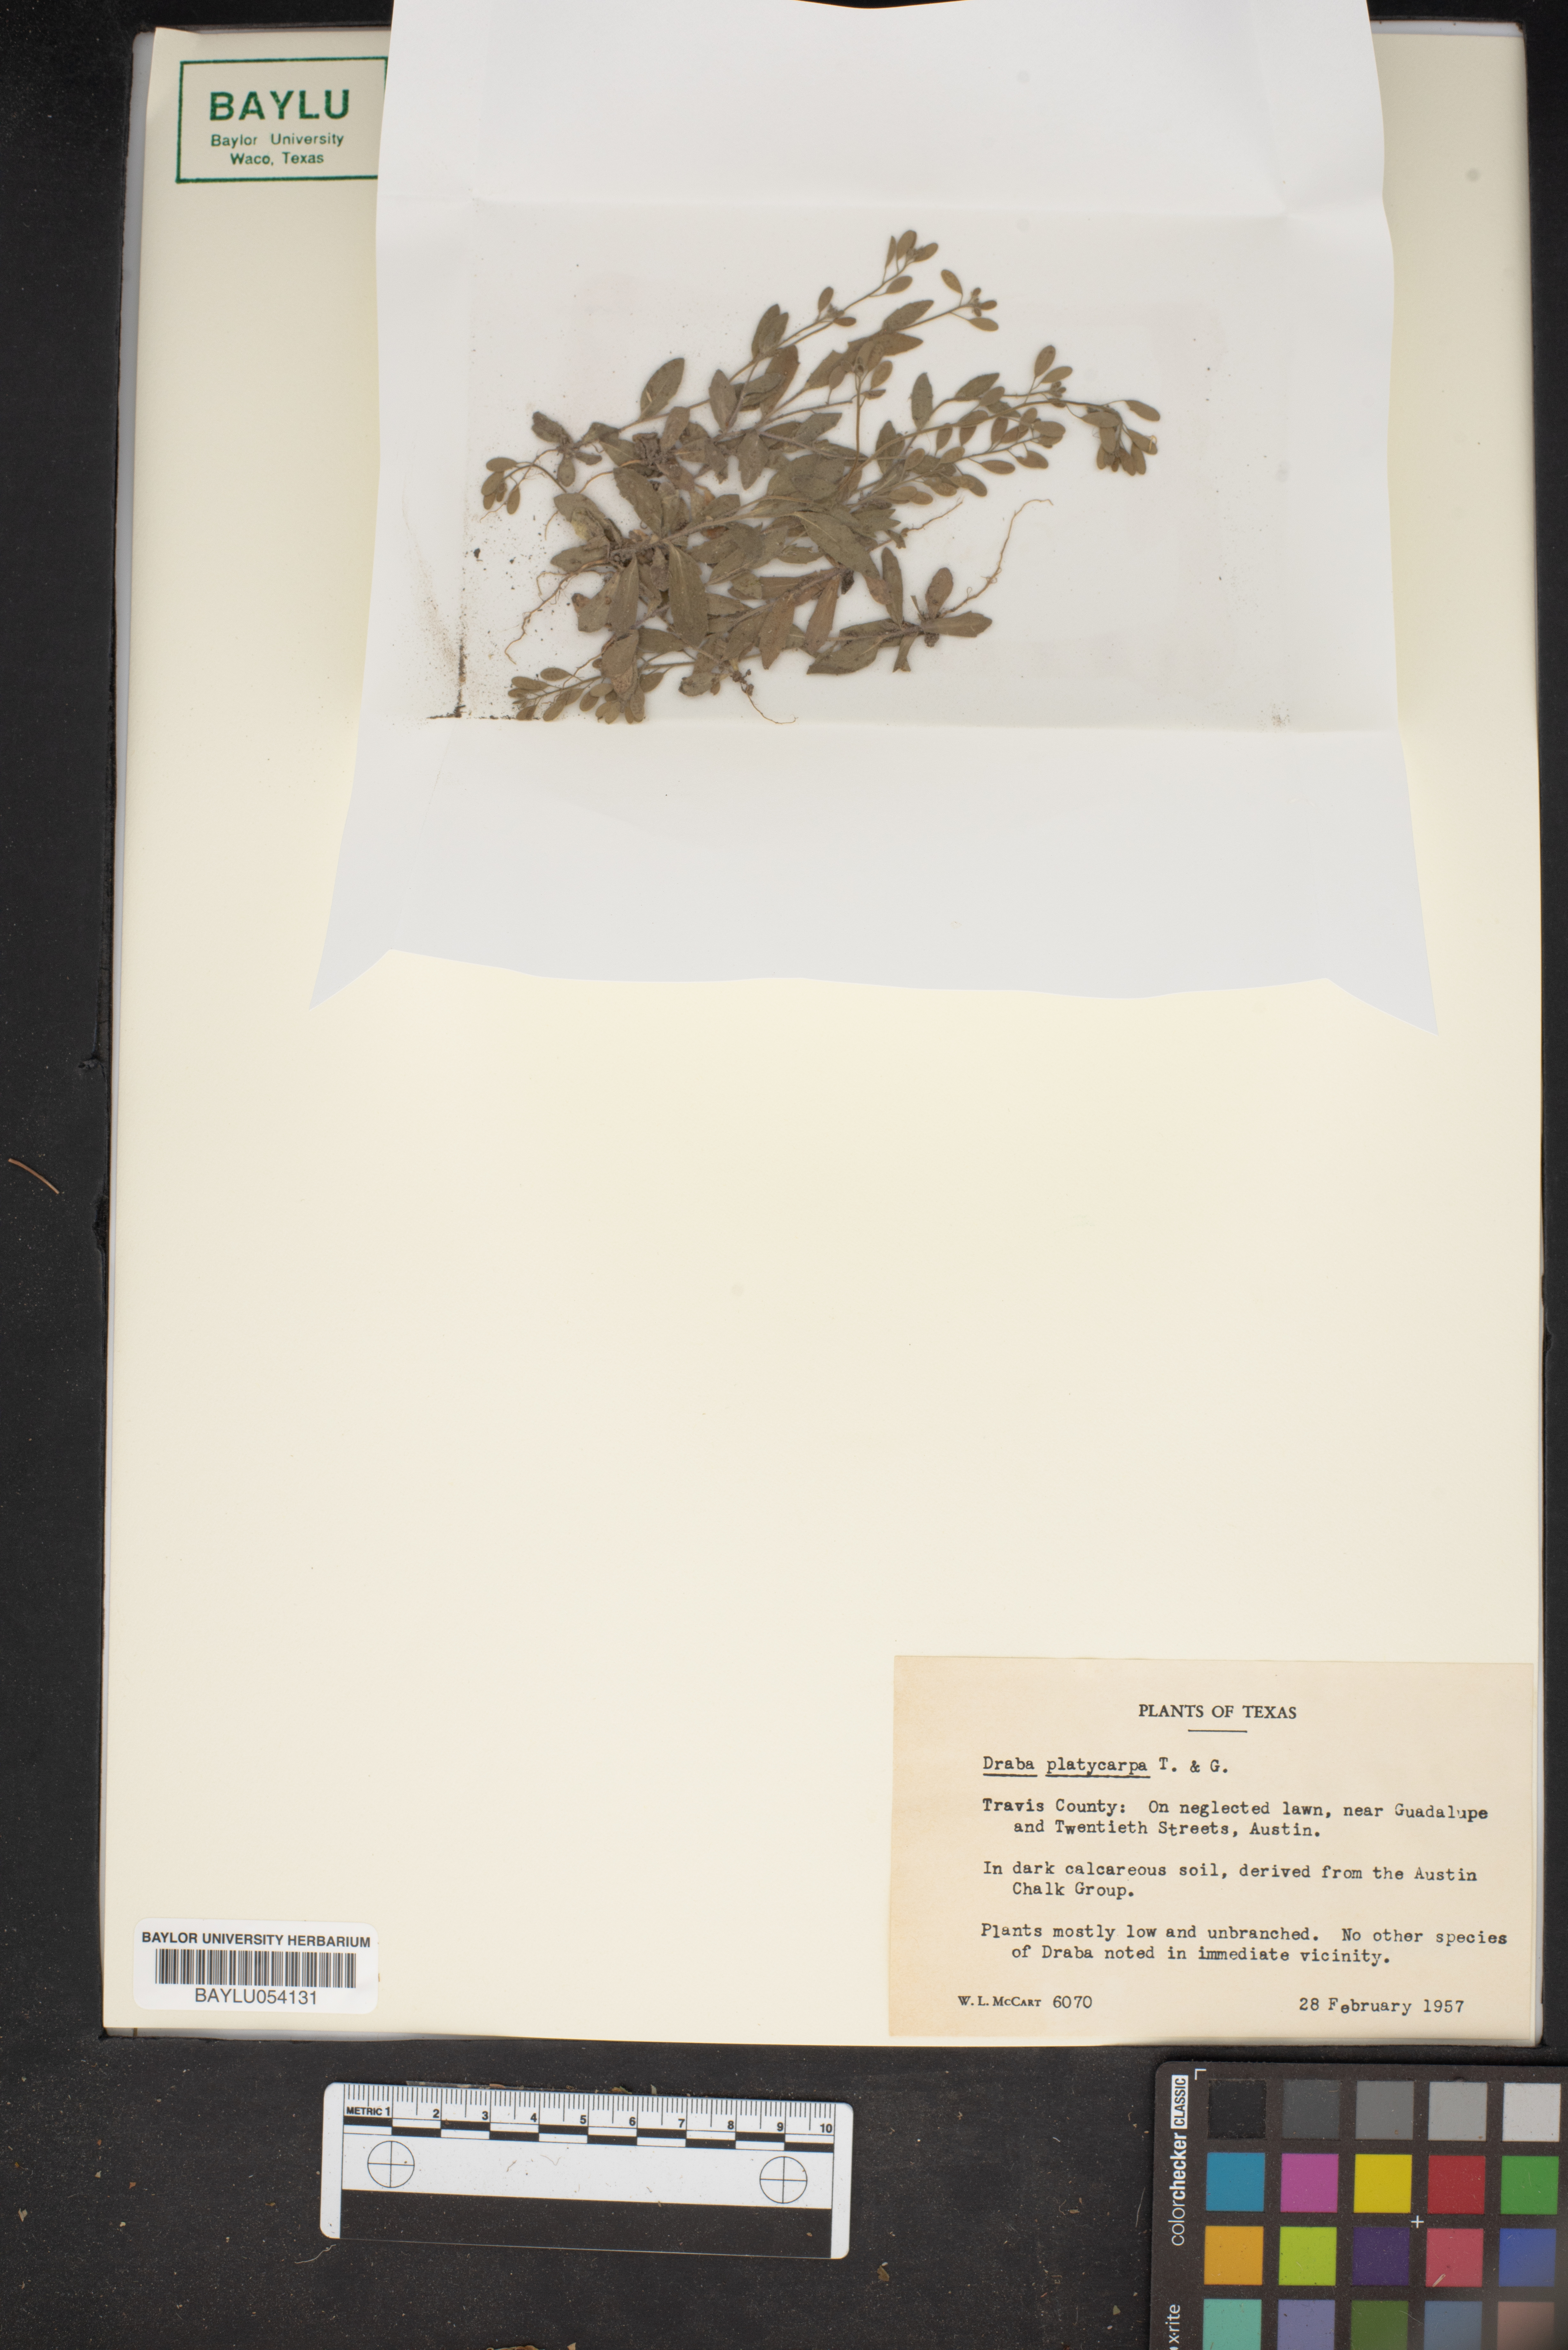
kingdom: Plantae
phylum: Tracheophyta
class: Magnoliopsida
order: Brassicales
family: Brassicaceae
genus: Tomostima
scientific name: Tomostima platycarpa
